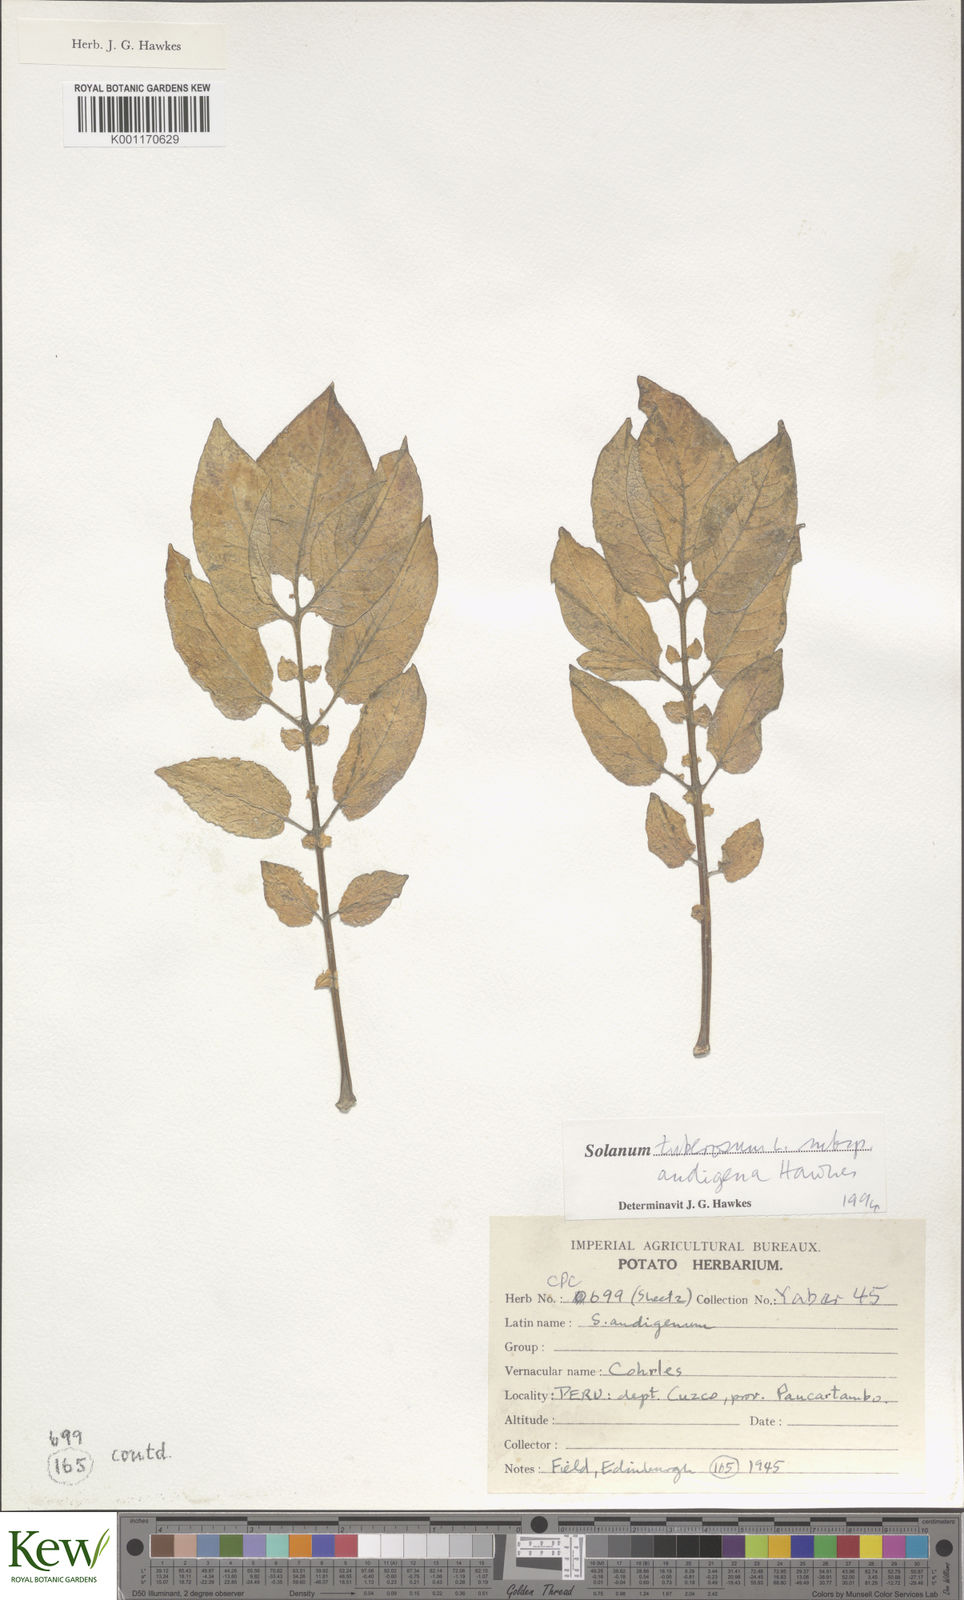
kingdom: Plantae
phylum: Tracheophyta
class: Magnoliopsida
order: Solanales
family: Solanaceae
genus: Solanum
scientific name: Solanum tuberosum
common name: Potato
